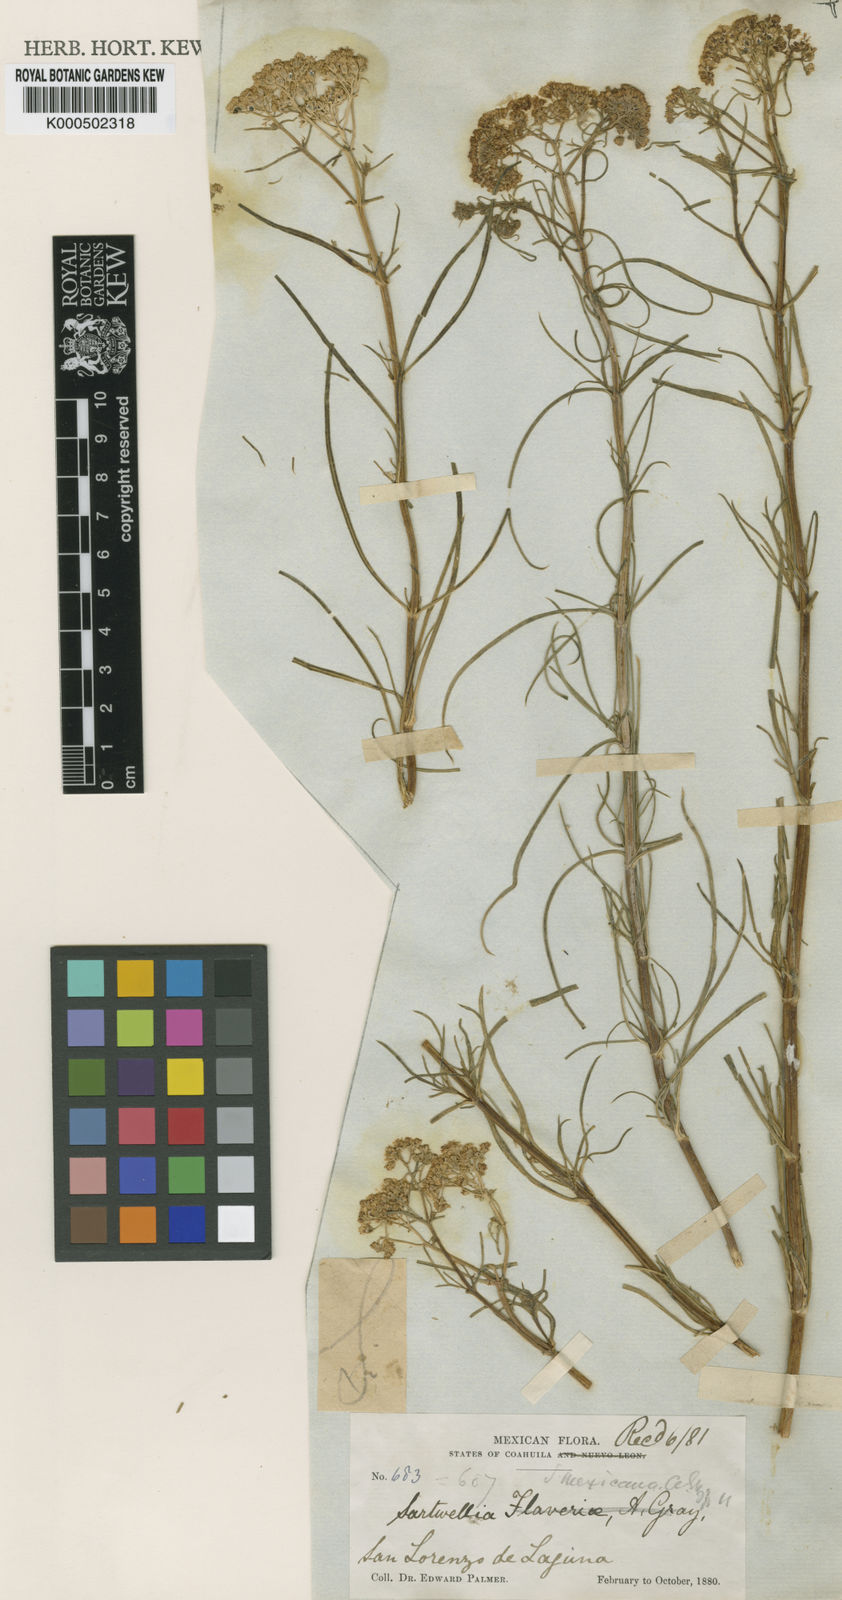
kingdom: Plantae
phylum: Tracheophyta
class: Magnoliopsida
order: Asterales
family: Asteraceae
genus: Sartwellia
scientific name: Sartwellia
